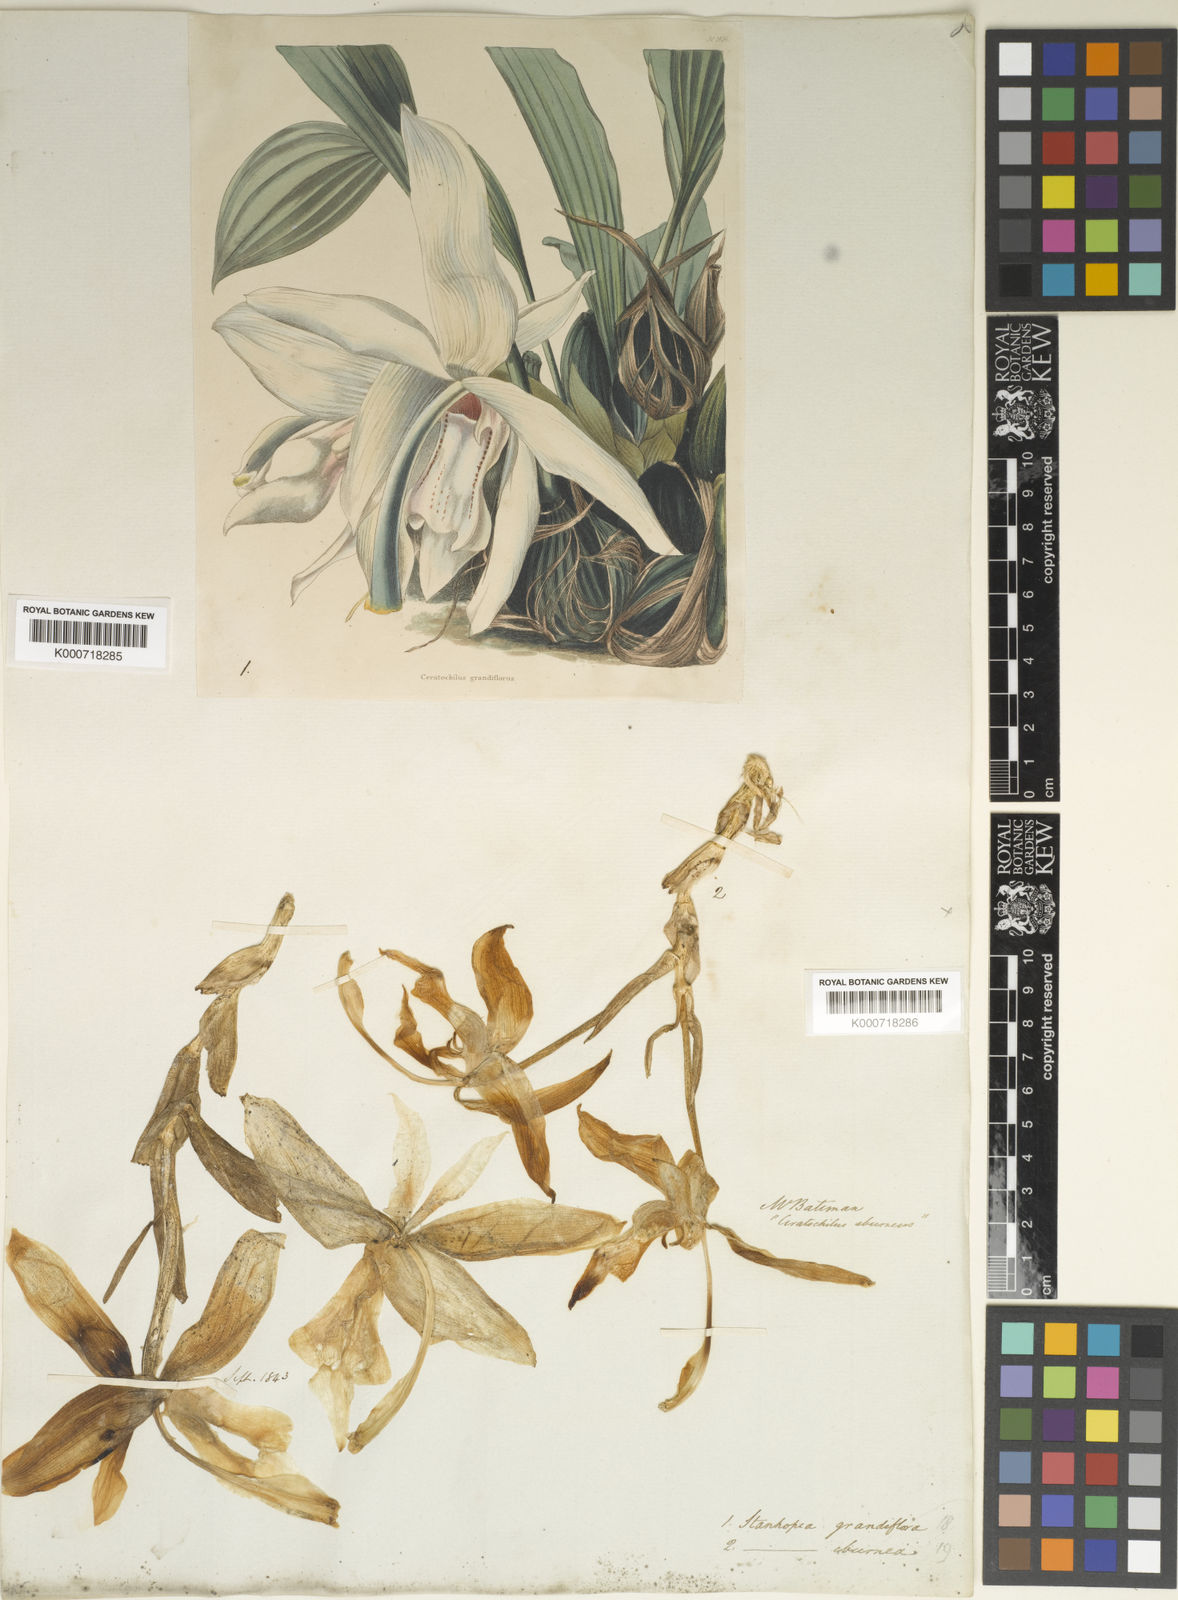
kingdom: Plantae
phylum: Tracheophyta
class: Liliopsida
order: Asparagales
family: Orchidaceae
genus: Stanhopea
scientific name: Stanhopea grandiflora
